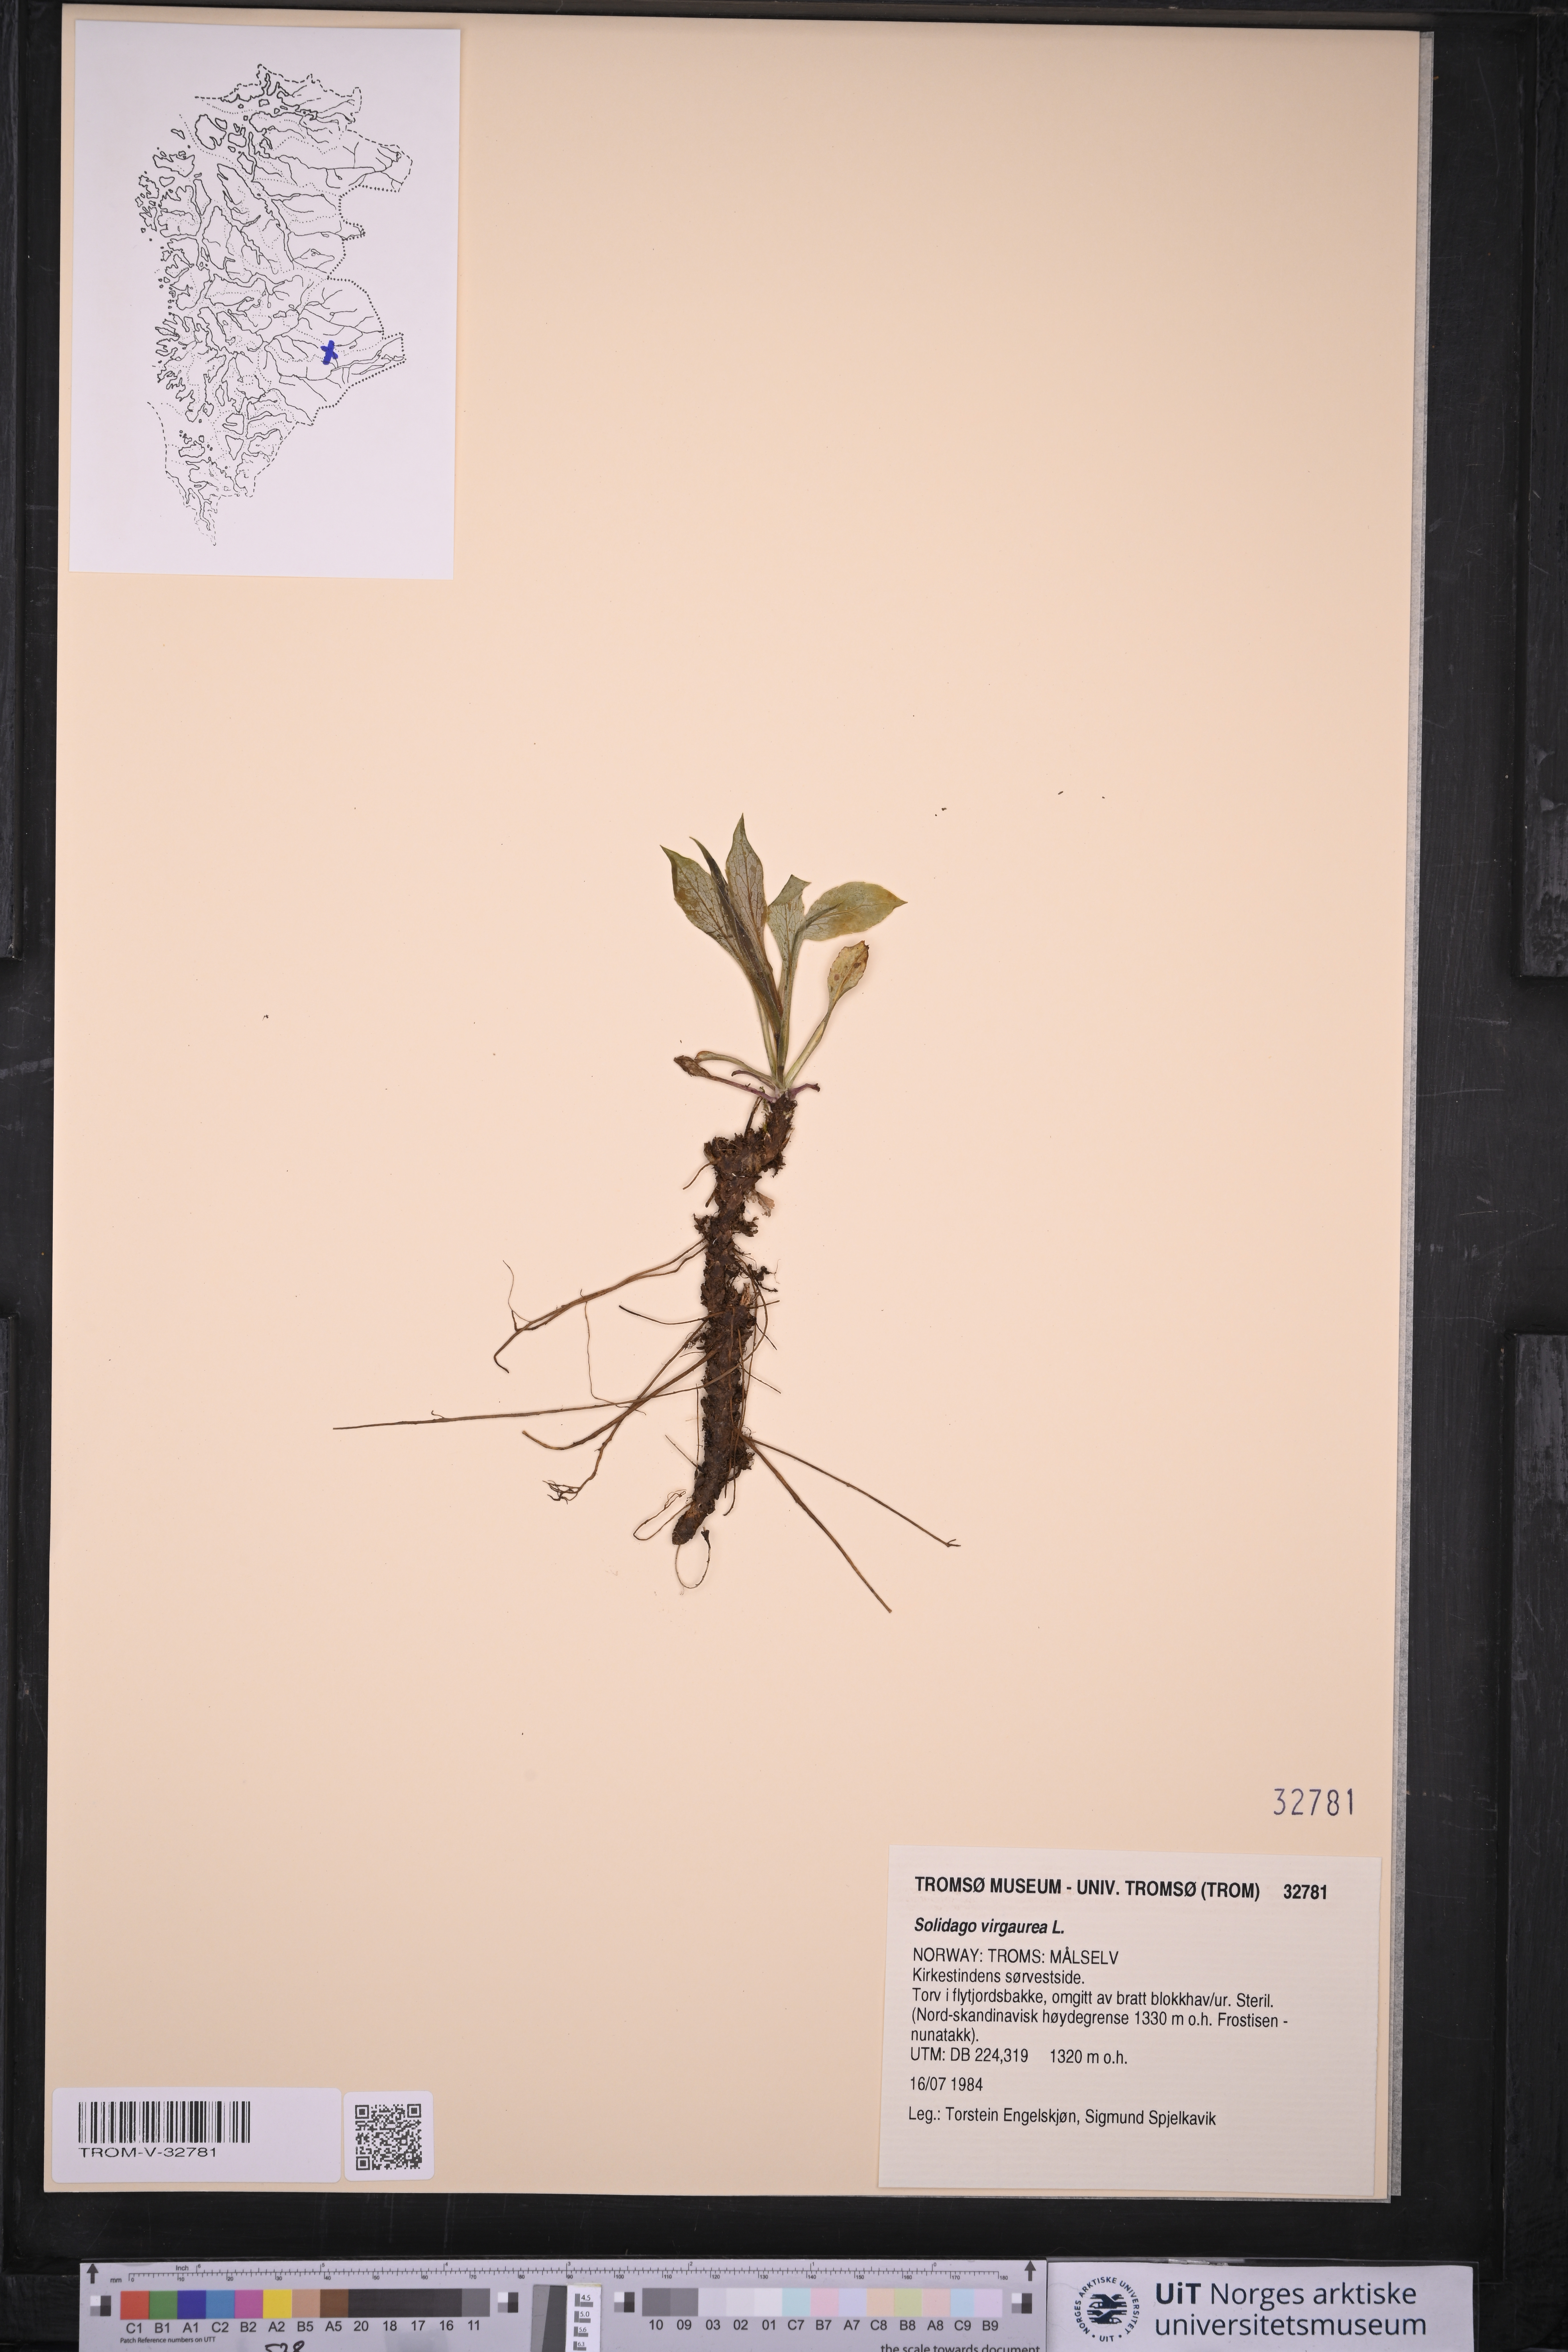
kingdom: Plantae
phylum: Tracheophyta
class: Magnoliopsida
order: Asterales
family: Asteraceae
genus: Solidago
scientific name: Solidago virgaurea
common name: Goldenrod
